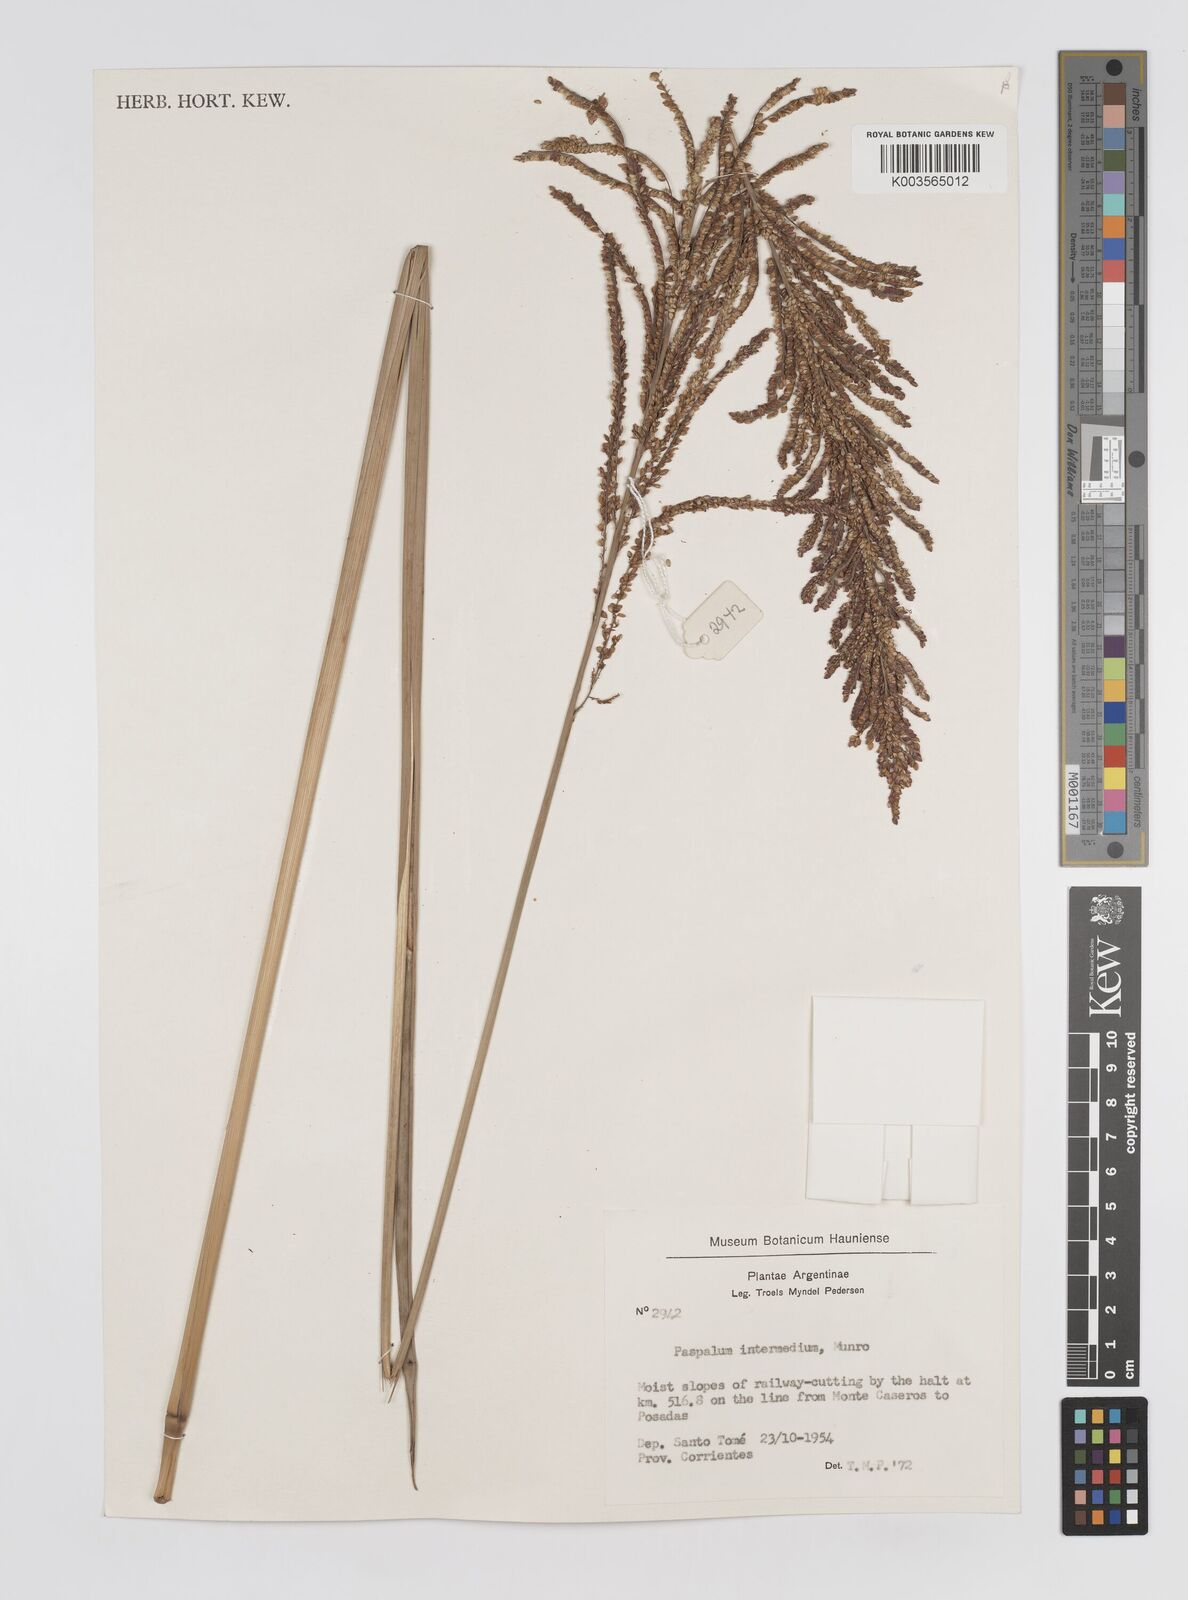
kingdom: Plantae
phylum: Tracheophyta
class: Liliopsida
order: Poales
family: Poaceae
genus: Paspalum
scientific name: Paspalum intermedium
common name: Intermediate paspalum
